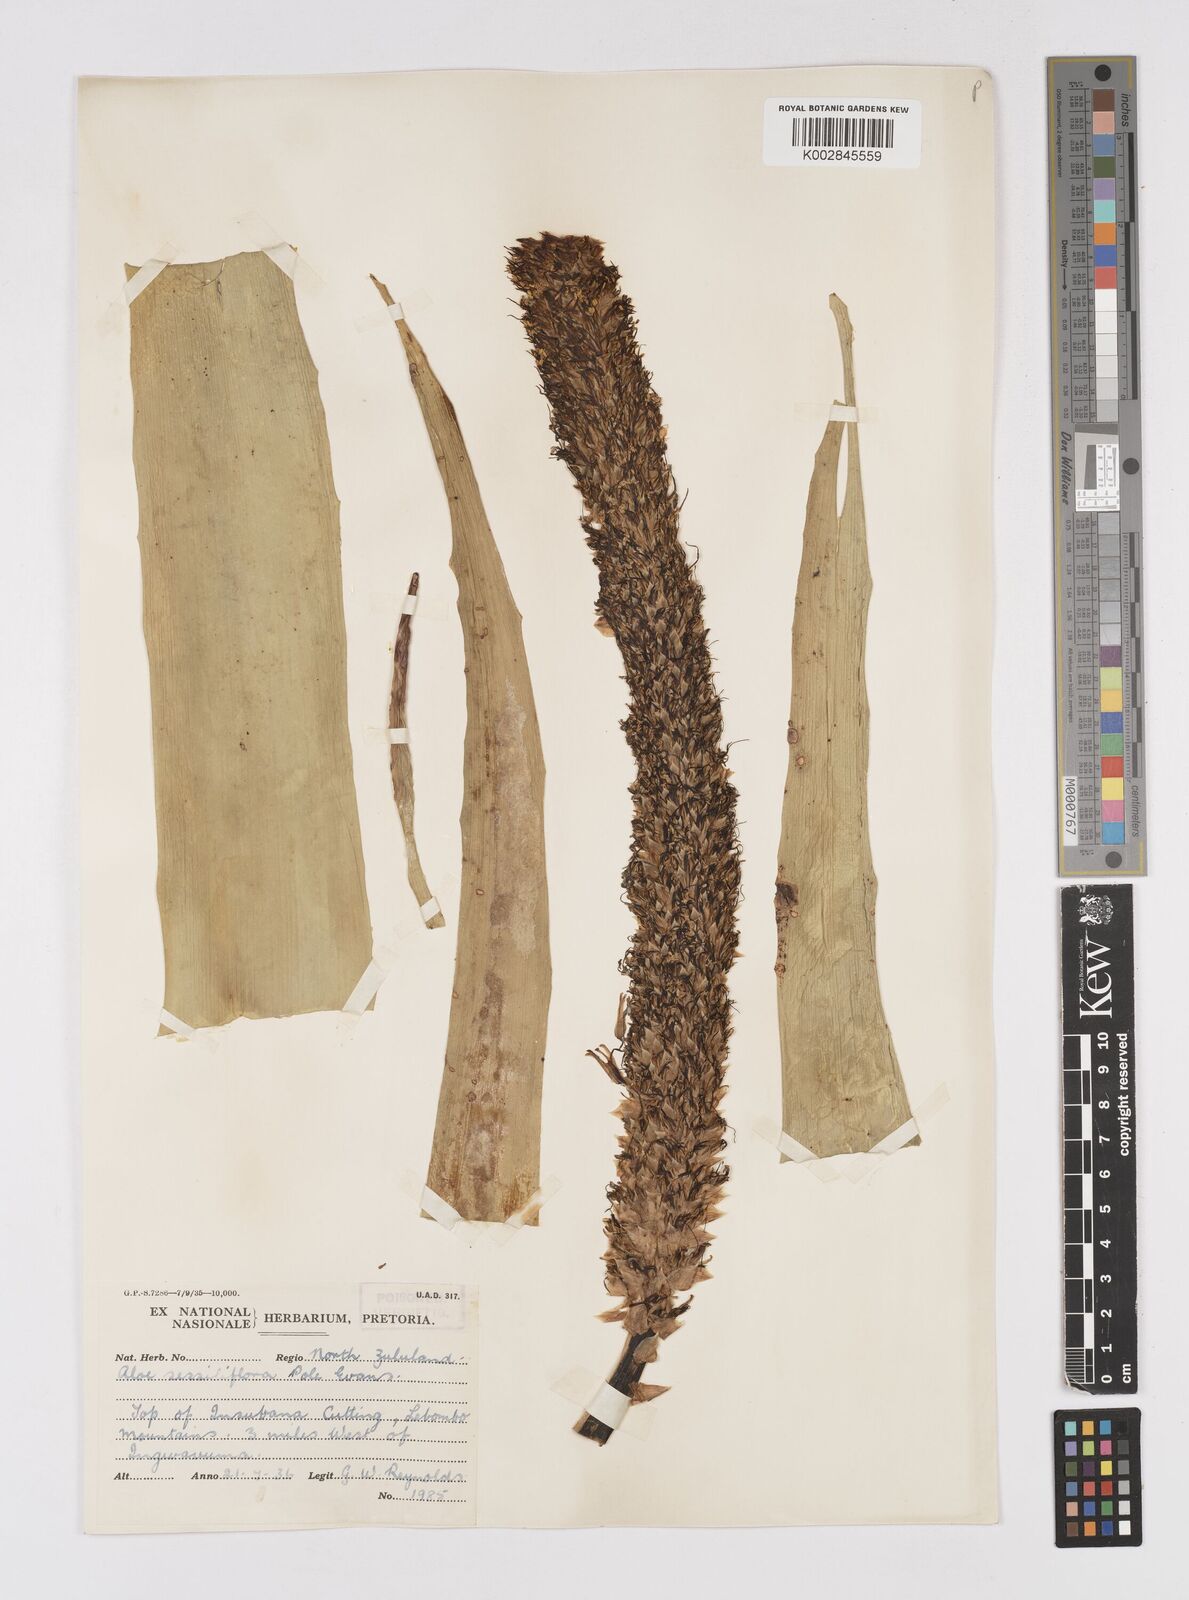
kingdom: Plantae
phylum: Tracheophyta
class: Liliopsida
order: Asparagales
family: Asphodelaceae
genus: Aloe
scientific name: Aloe spicata
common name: Gazaland aloe
